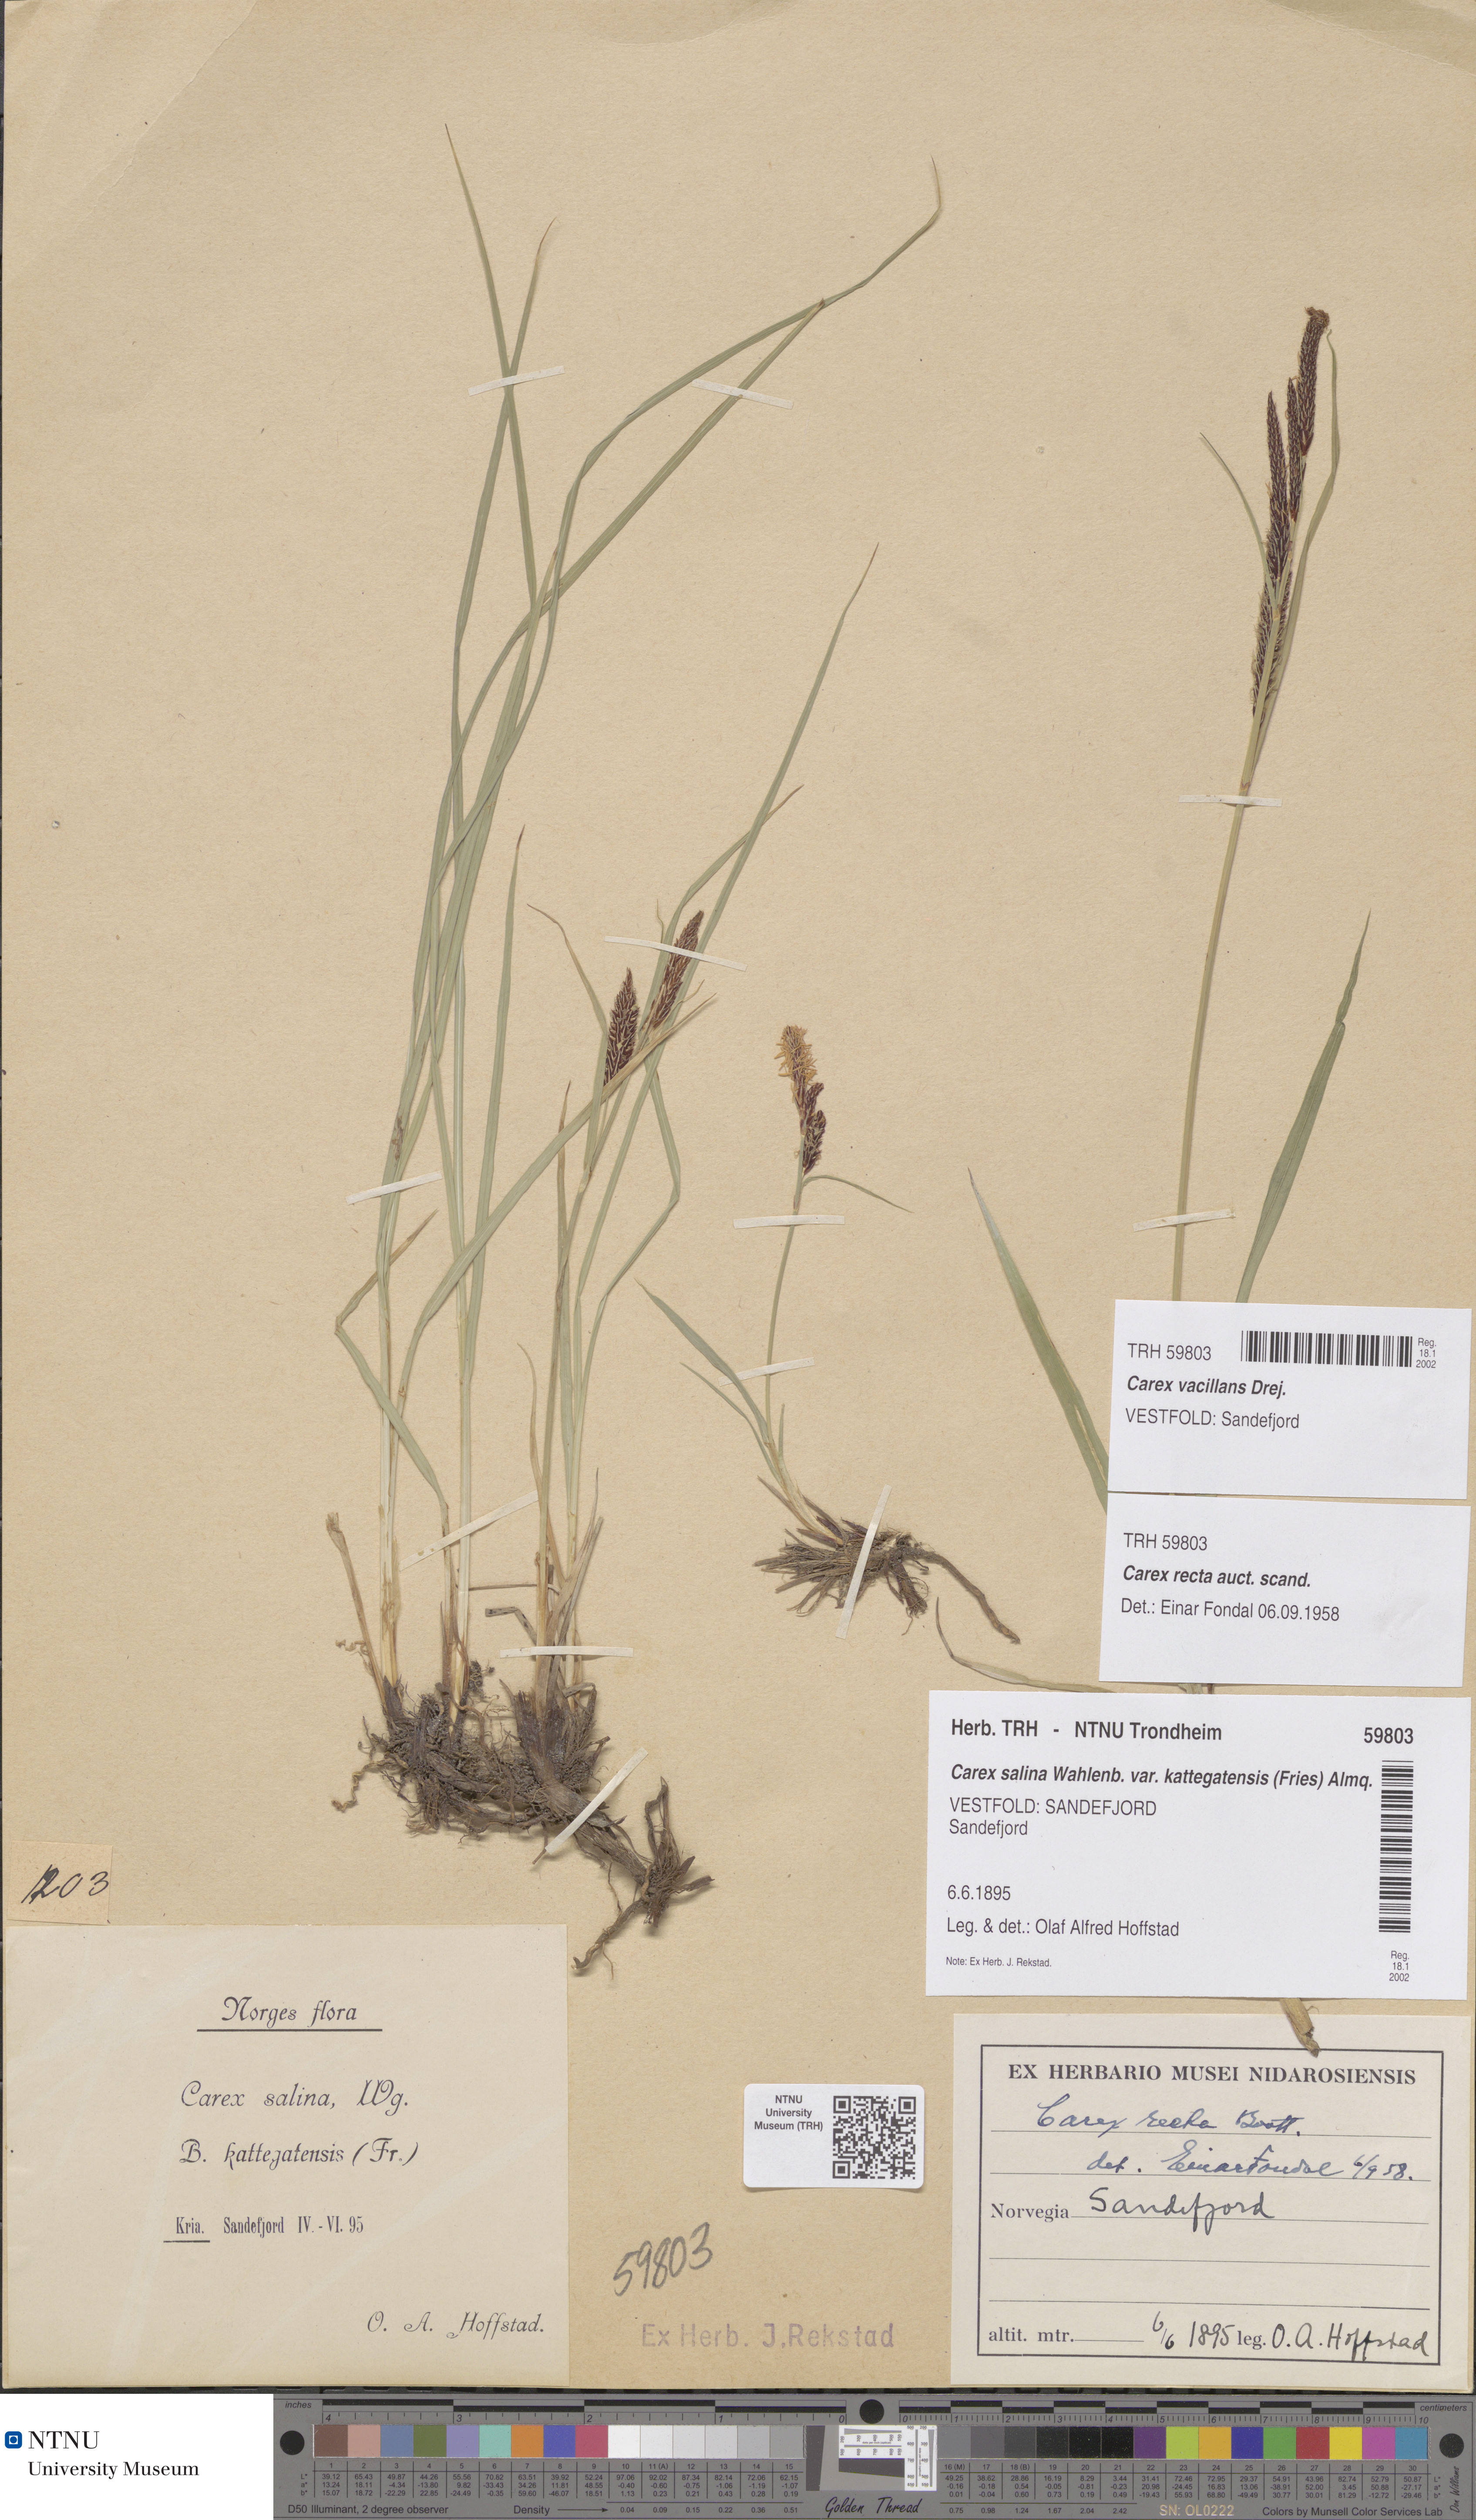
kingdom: Plantae
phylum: Tracheophyta
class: Liliopsida
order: Poales
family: Cyperaceae
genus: Carex
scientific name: Carex vacillans
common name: Sedge
